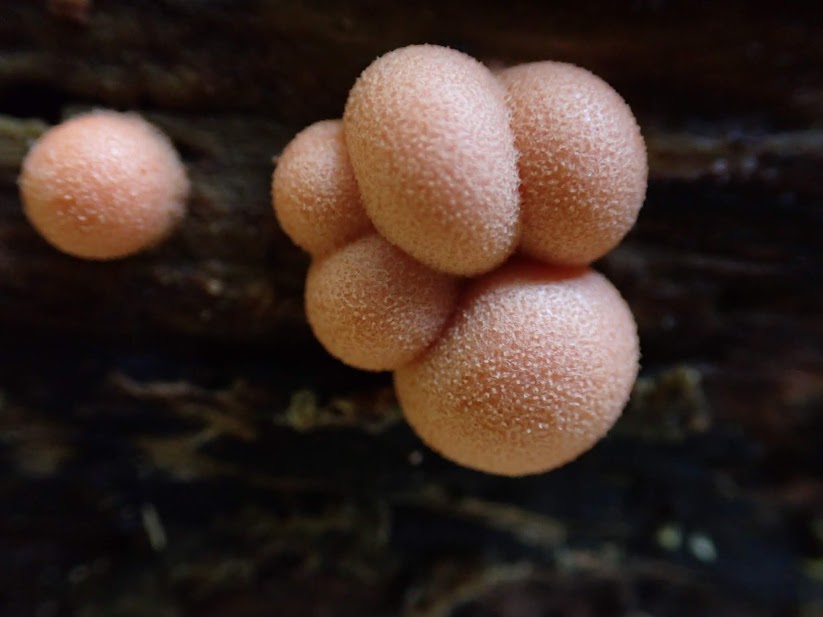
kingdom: Protozoa
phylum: Mycetozoa
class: Myxomycetes
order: Cribrariales
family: Tubiferaceae
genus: Lycogala
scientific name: Lycogala epidendrum
